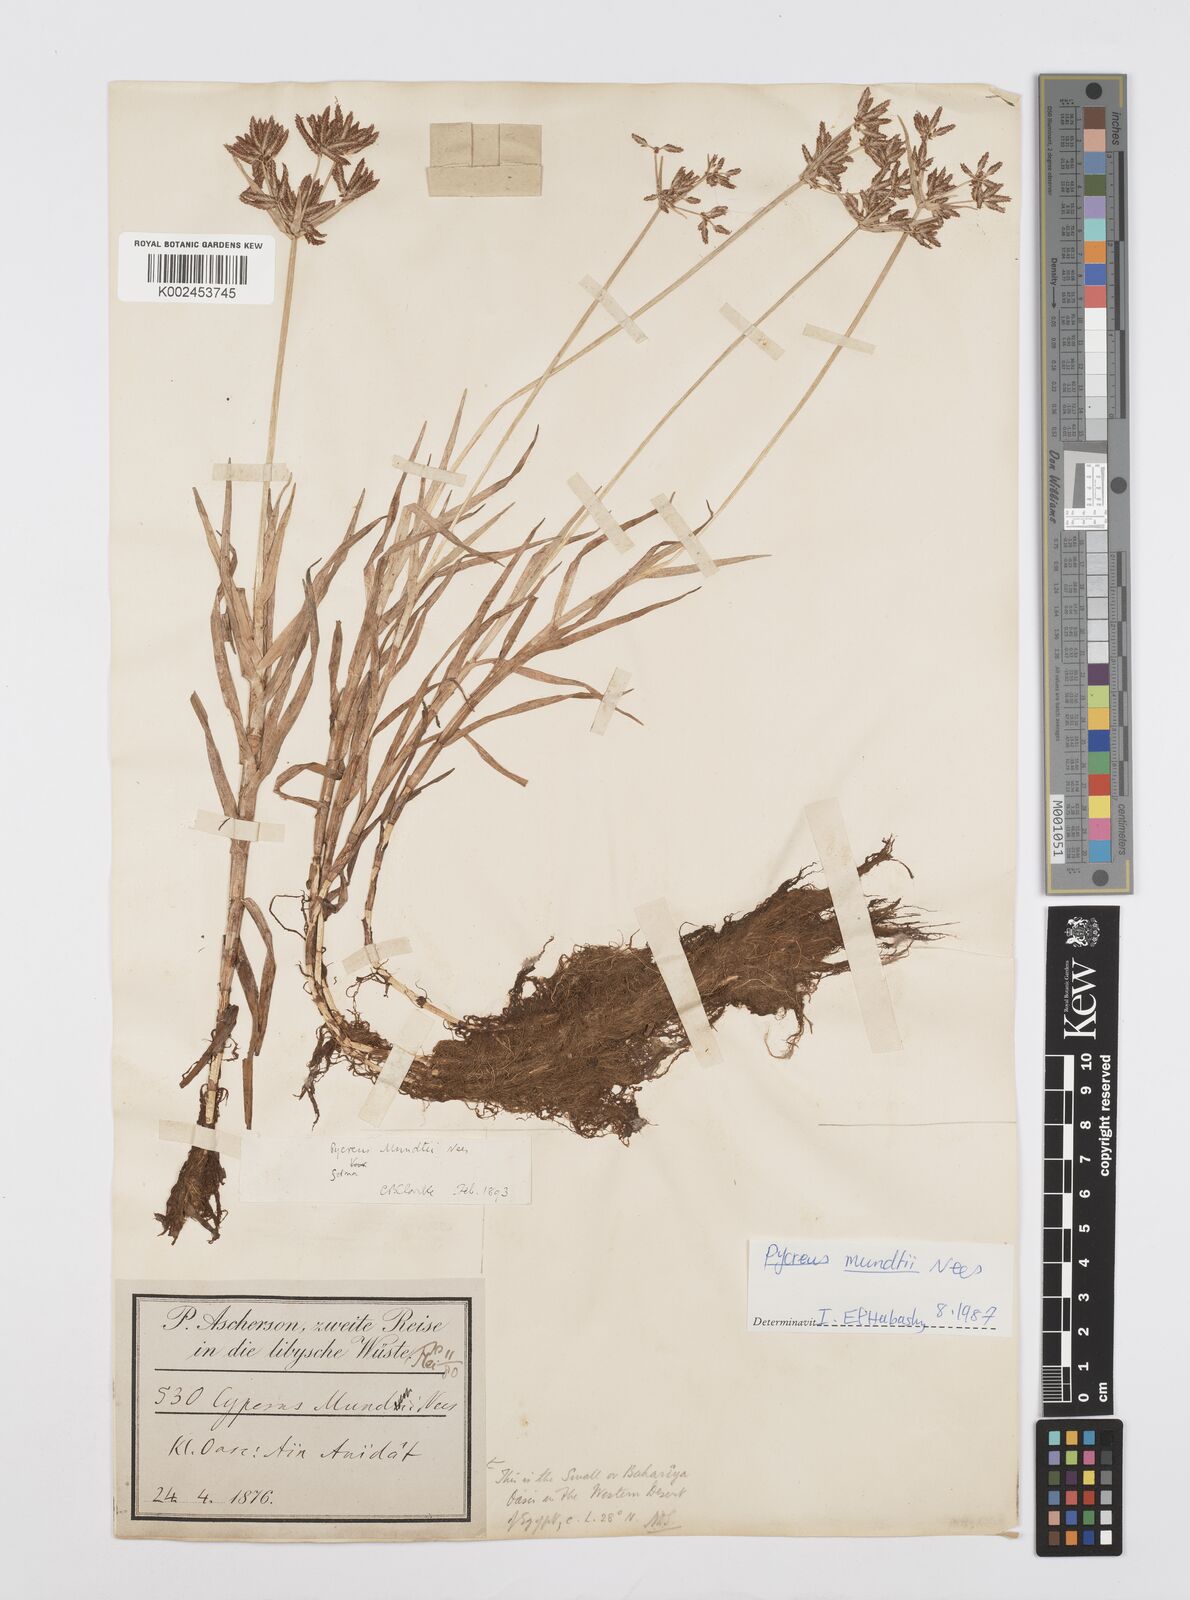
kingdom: Plantae
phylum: Tracheophyta
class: Liliopsida
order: Poales
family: Cyperaceae
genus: Cyperus
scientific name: Cyperus mundii
